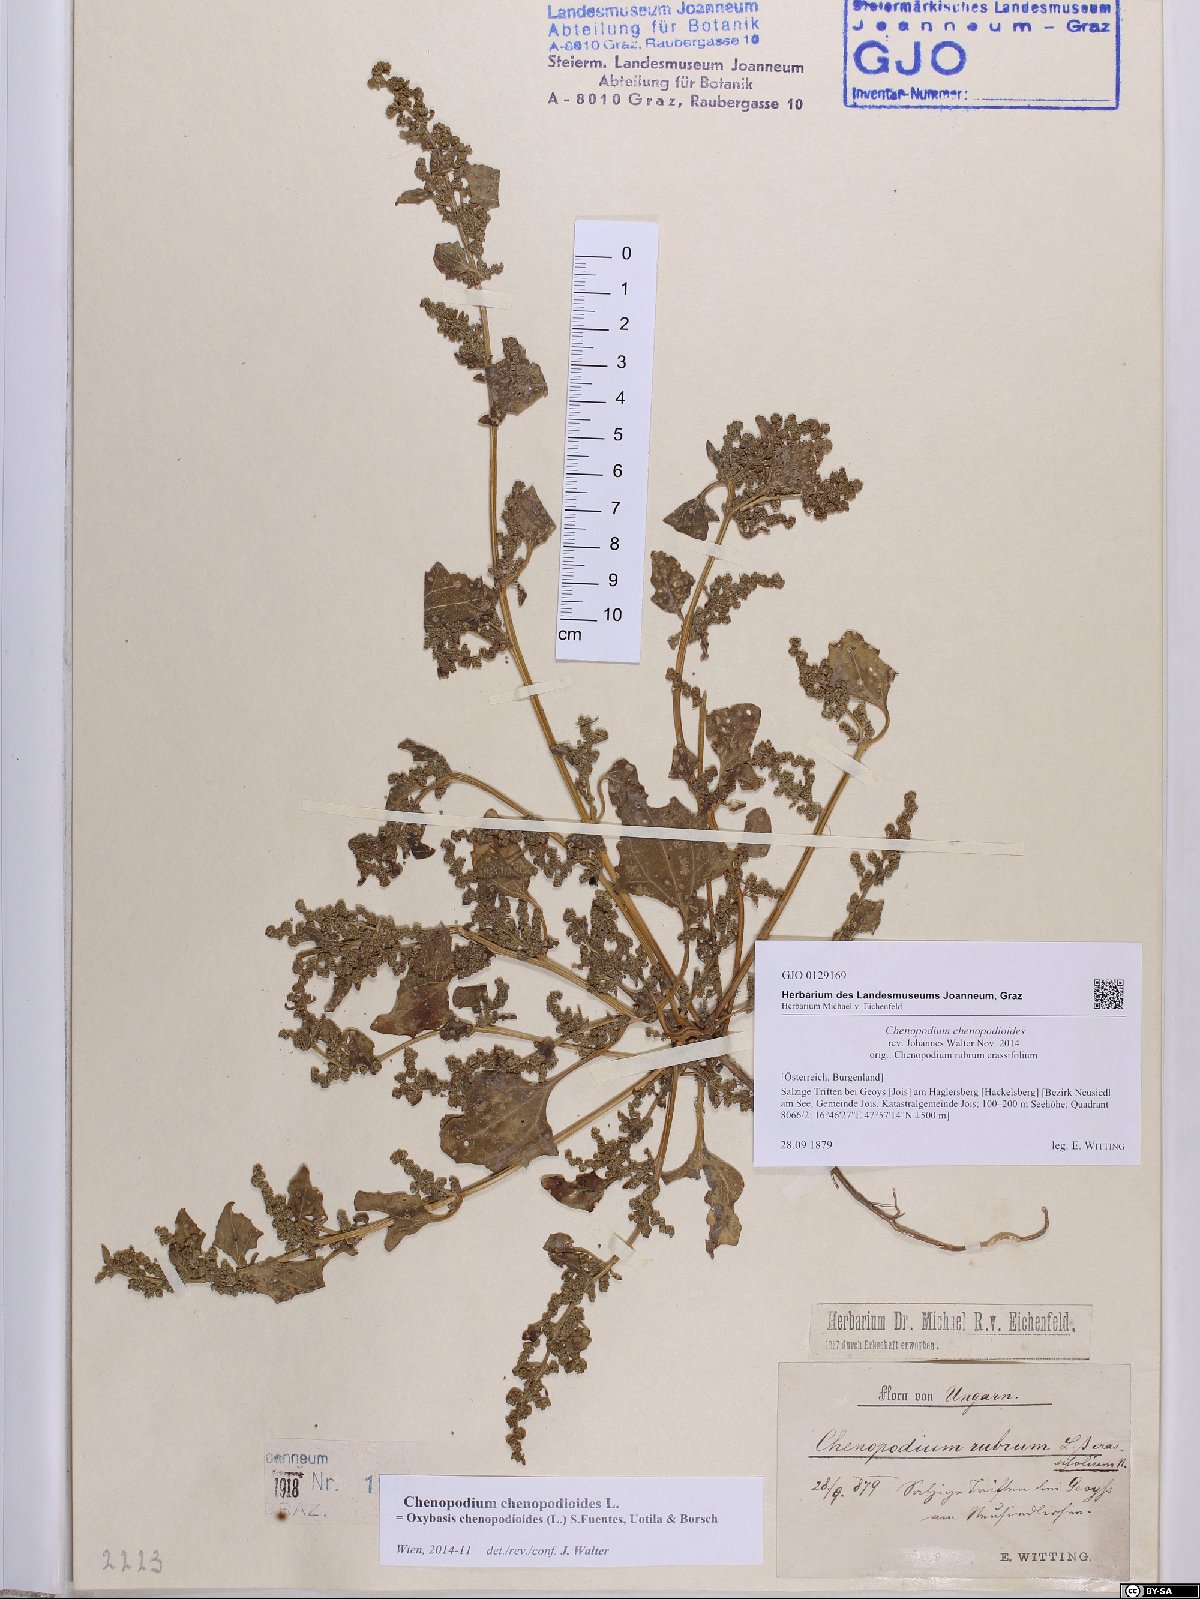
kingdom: Plantae
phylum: Tracheophyta
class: Magnoliopsida
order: Caryophyllales
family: Amaranthaceae
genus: Oxybasis
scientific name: Oxybasis chenopodioides
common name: Saltmarsh goosefoot
